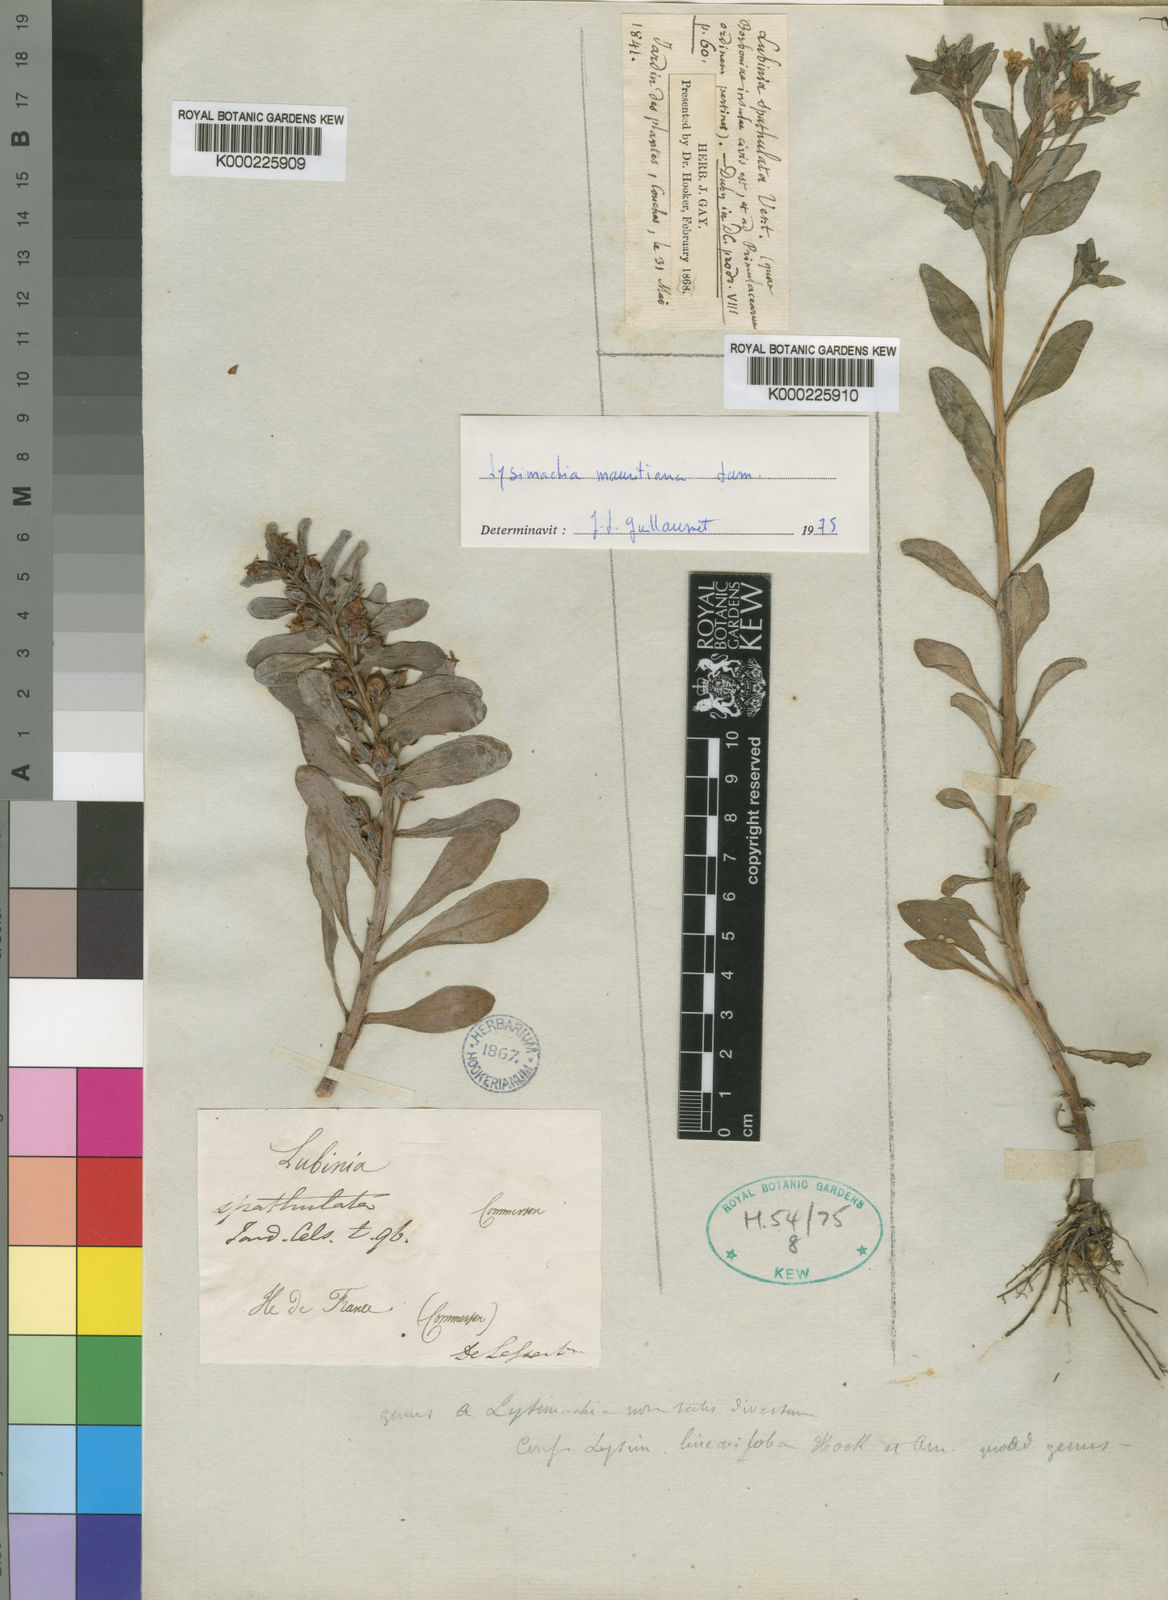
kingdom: Plantae
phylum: Tracheophyta
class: Magnoliopsida
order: Ericales
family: Primulaceae
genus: Lysimachia
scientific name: Lysimachia mauritiana
